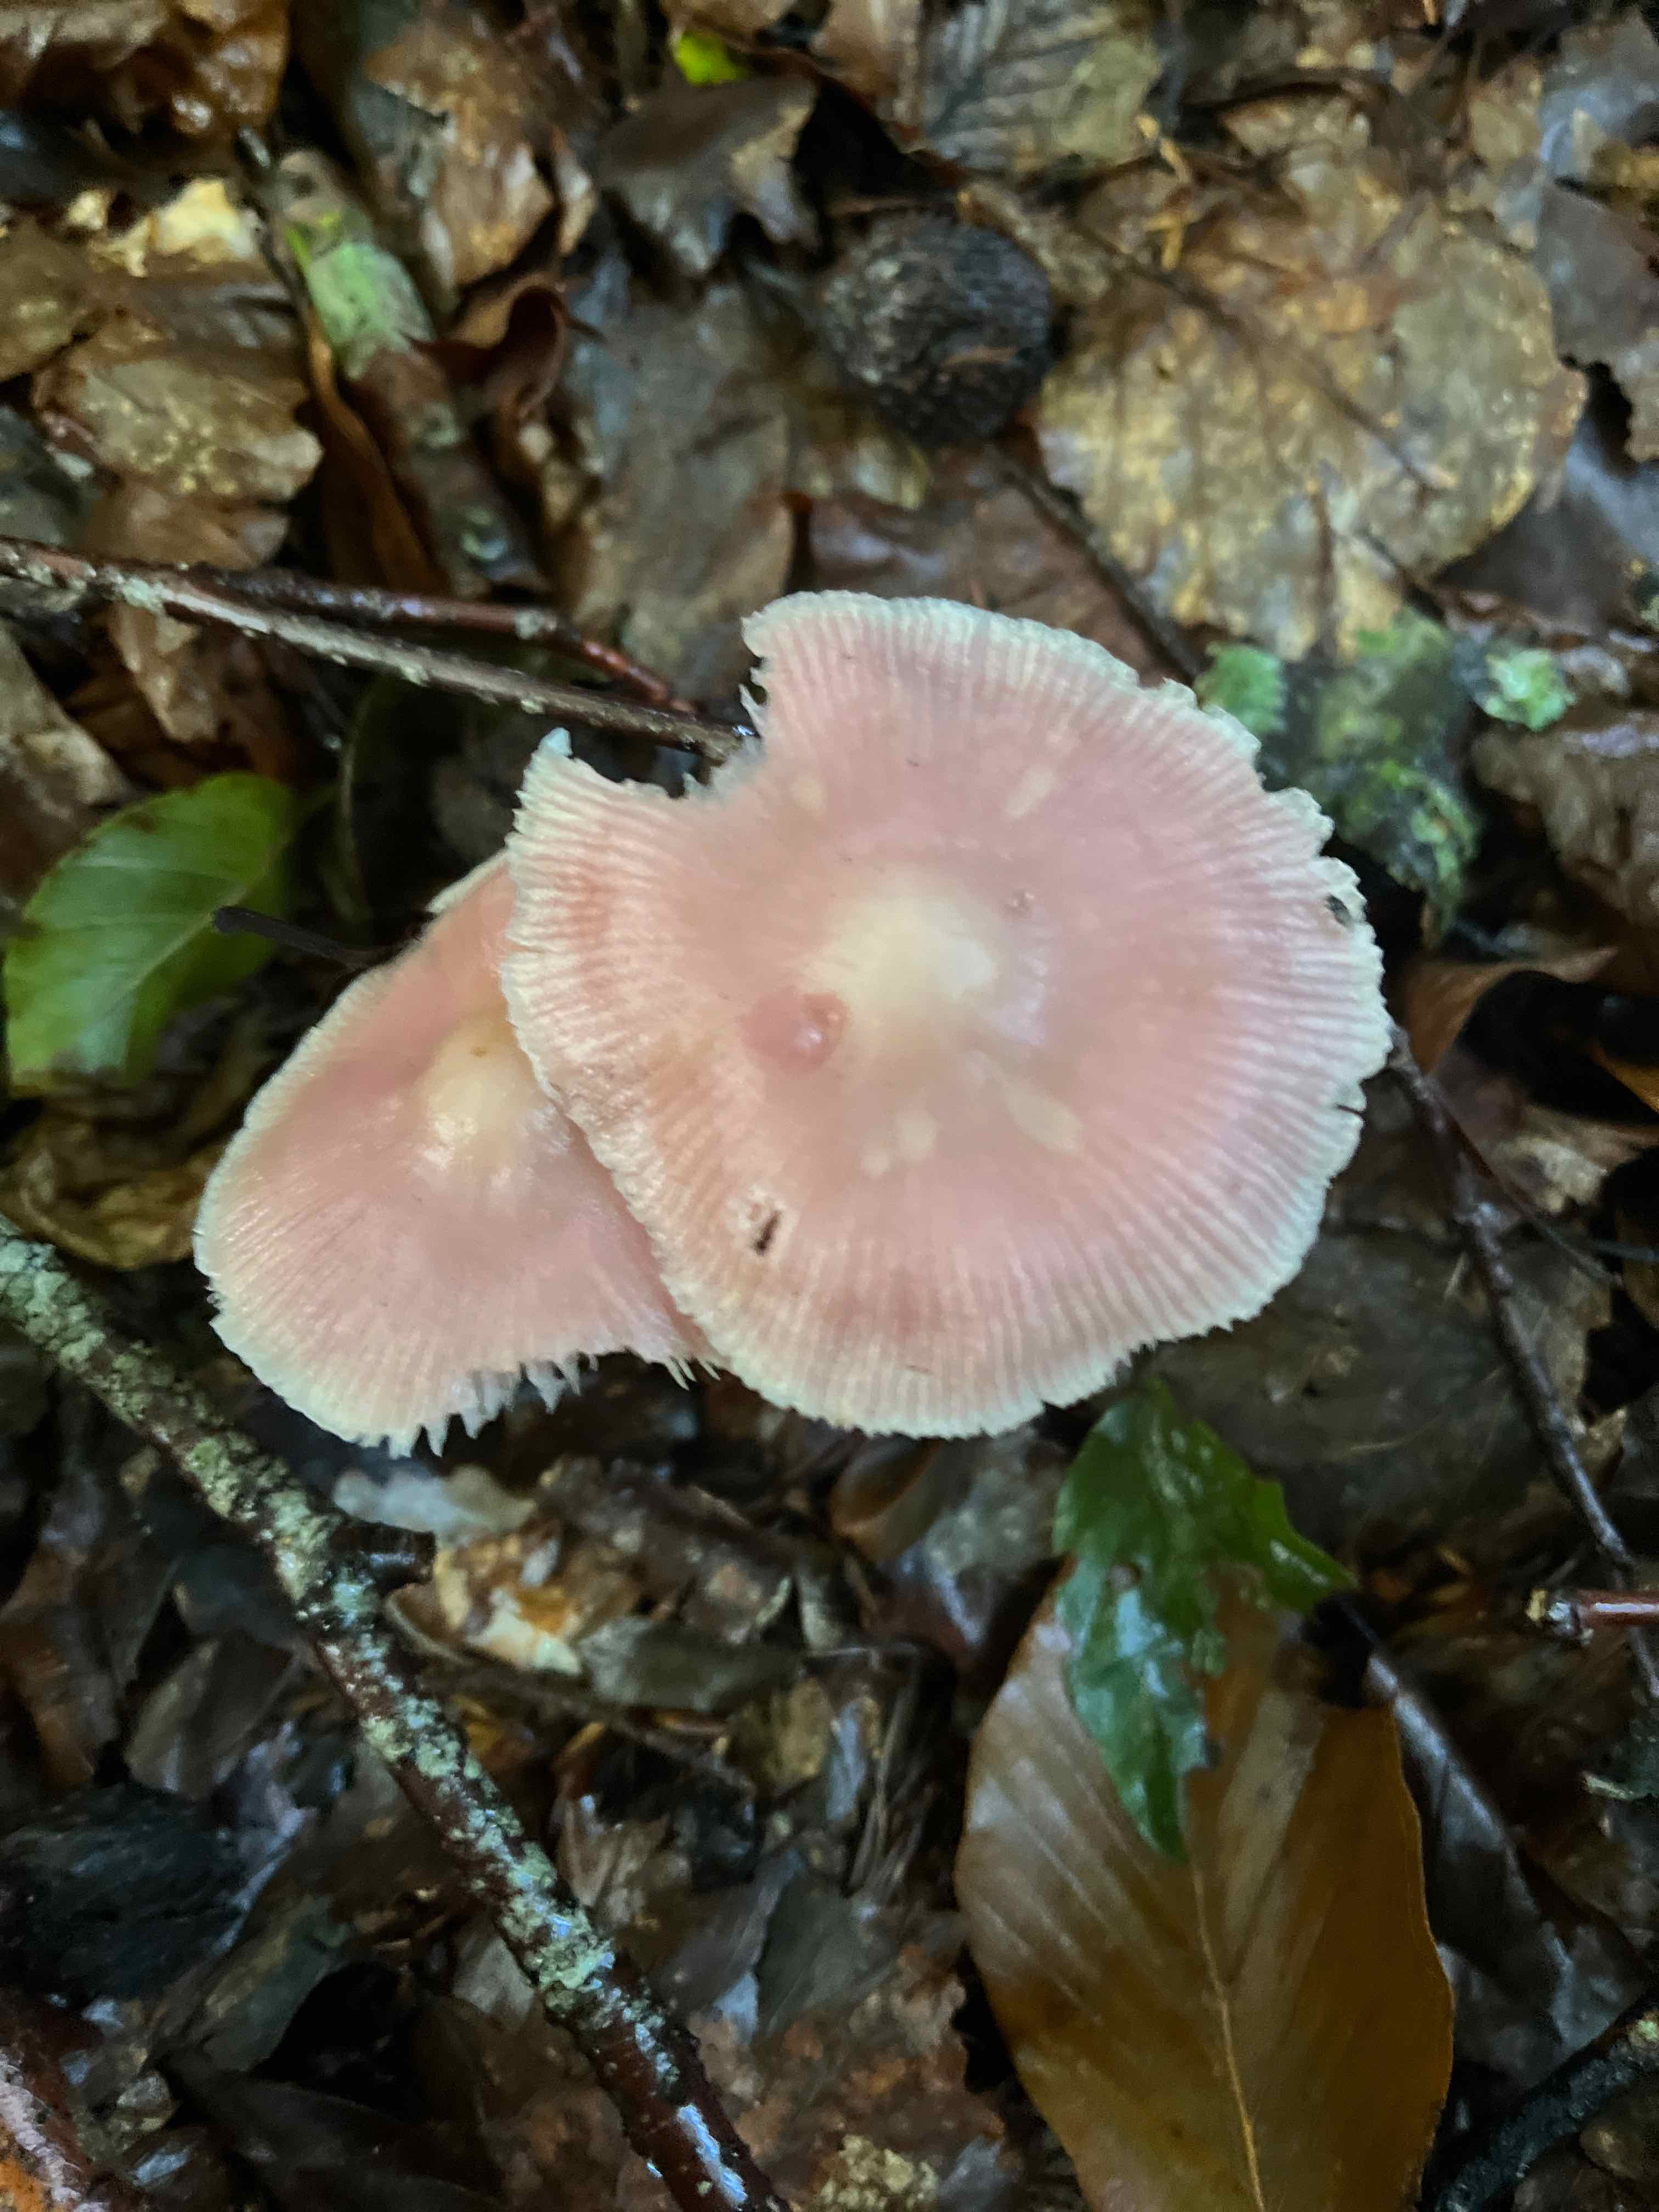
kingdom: Fungi
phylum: Basidiomycota
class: Agaricomycetes
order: Agaricales
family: Mycenaceae
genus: Mycena
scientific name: Mycena rosea
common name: rosa huesvamp
